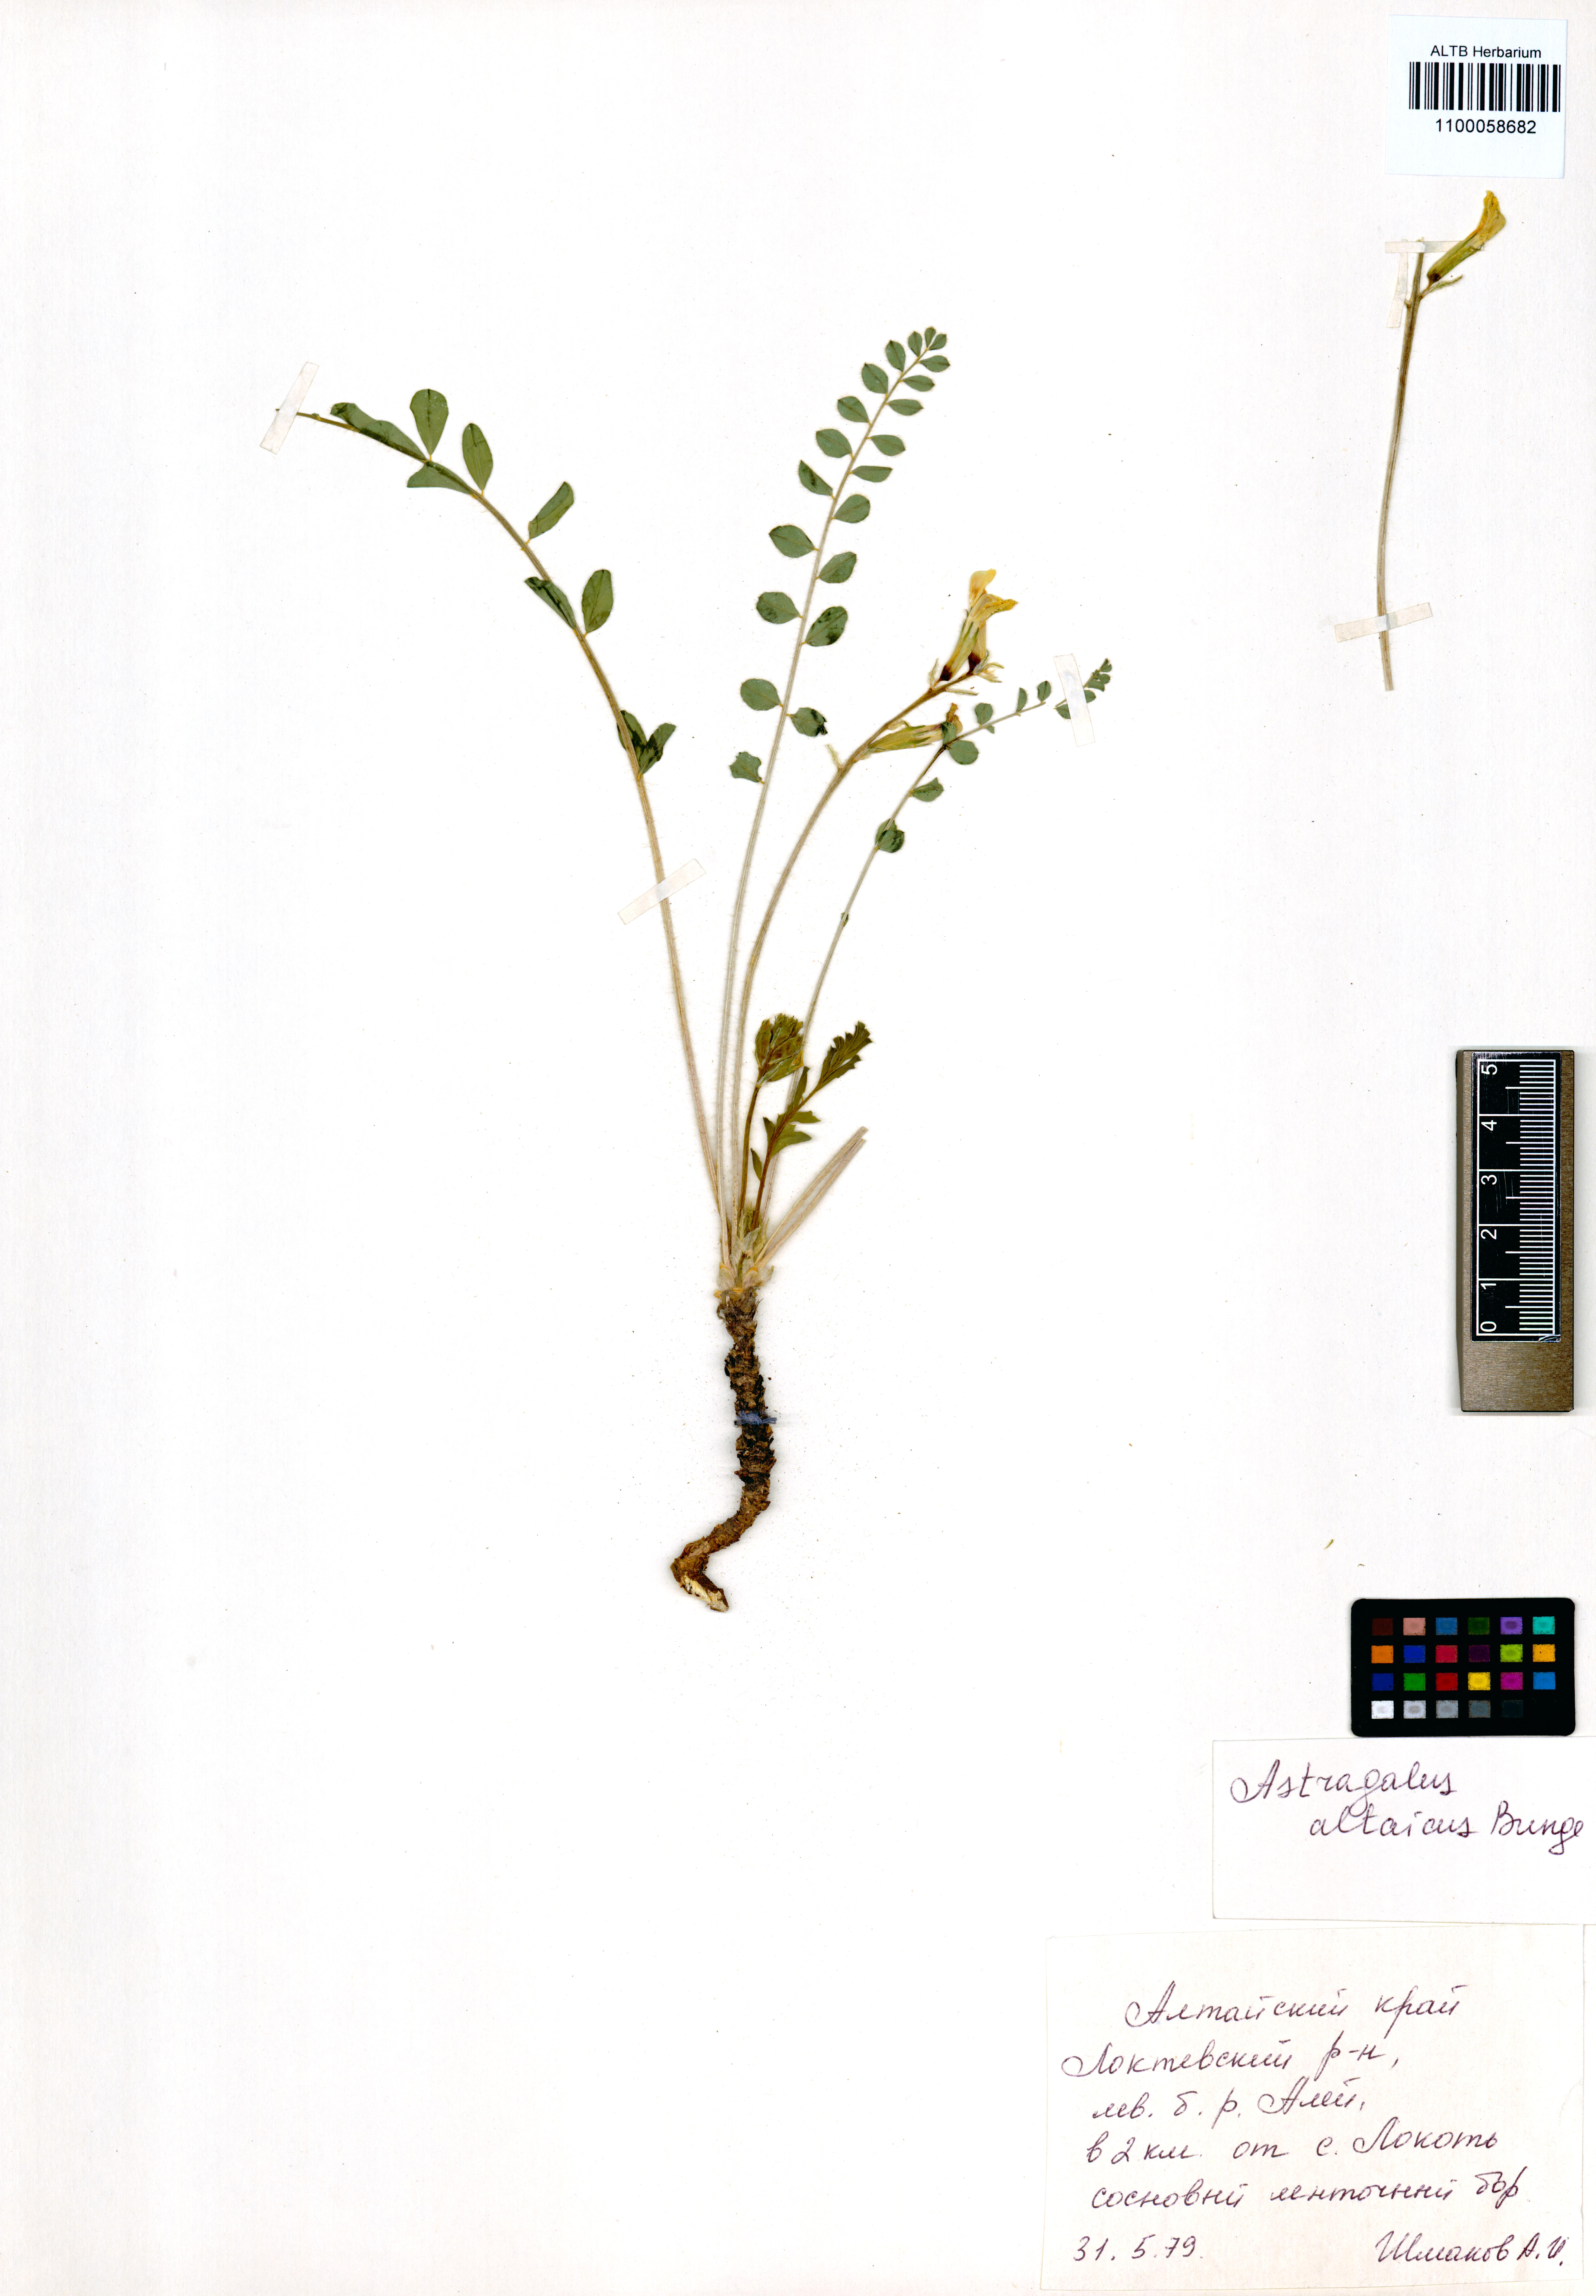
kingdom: Plantae
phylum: Tracheophyta
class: Magnoliopsida
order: Fabales
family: Fabaceae
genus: Astragalus
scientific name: Astragalus altaicola
